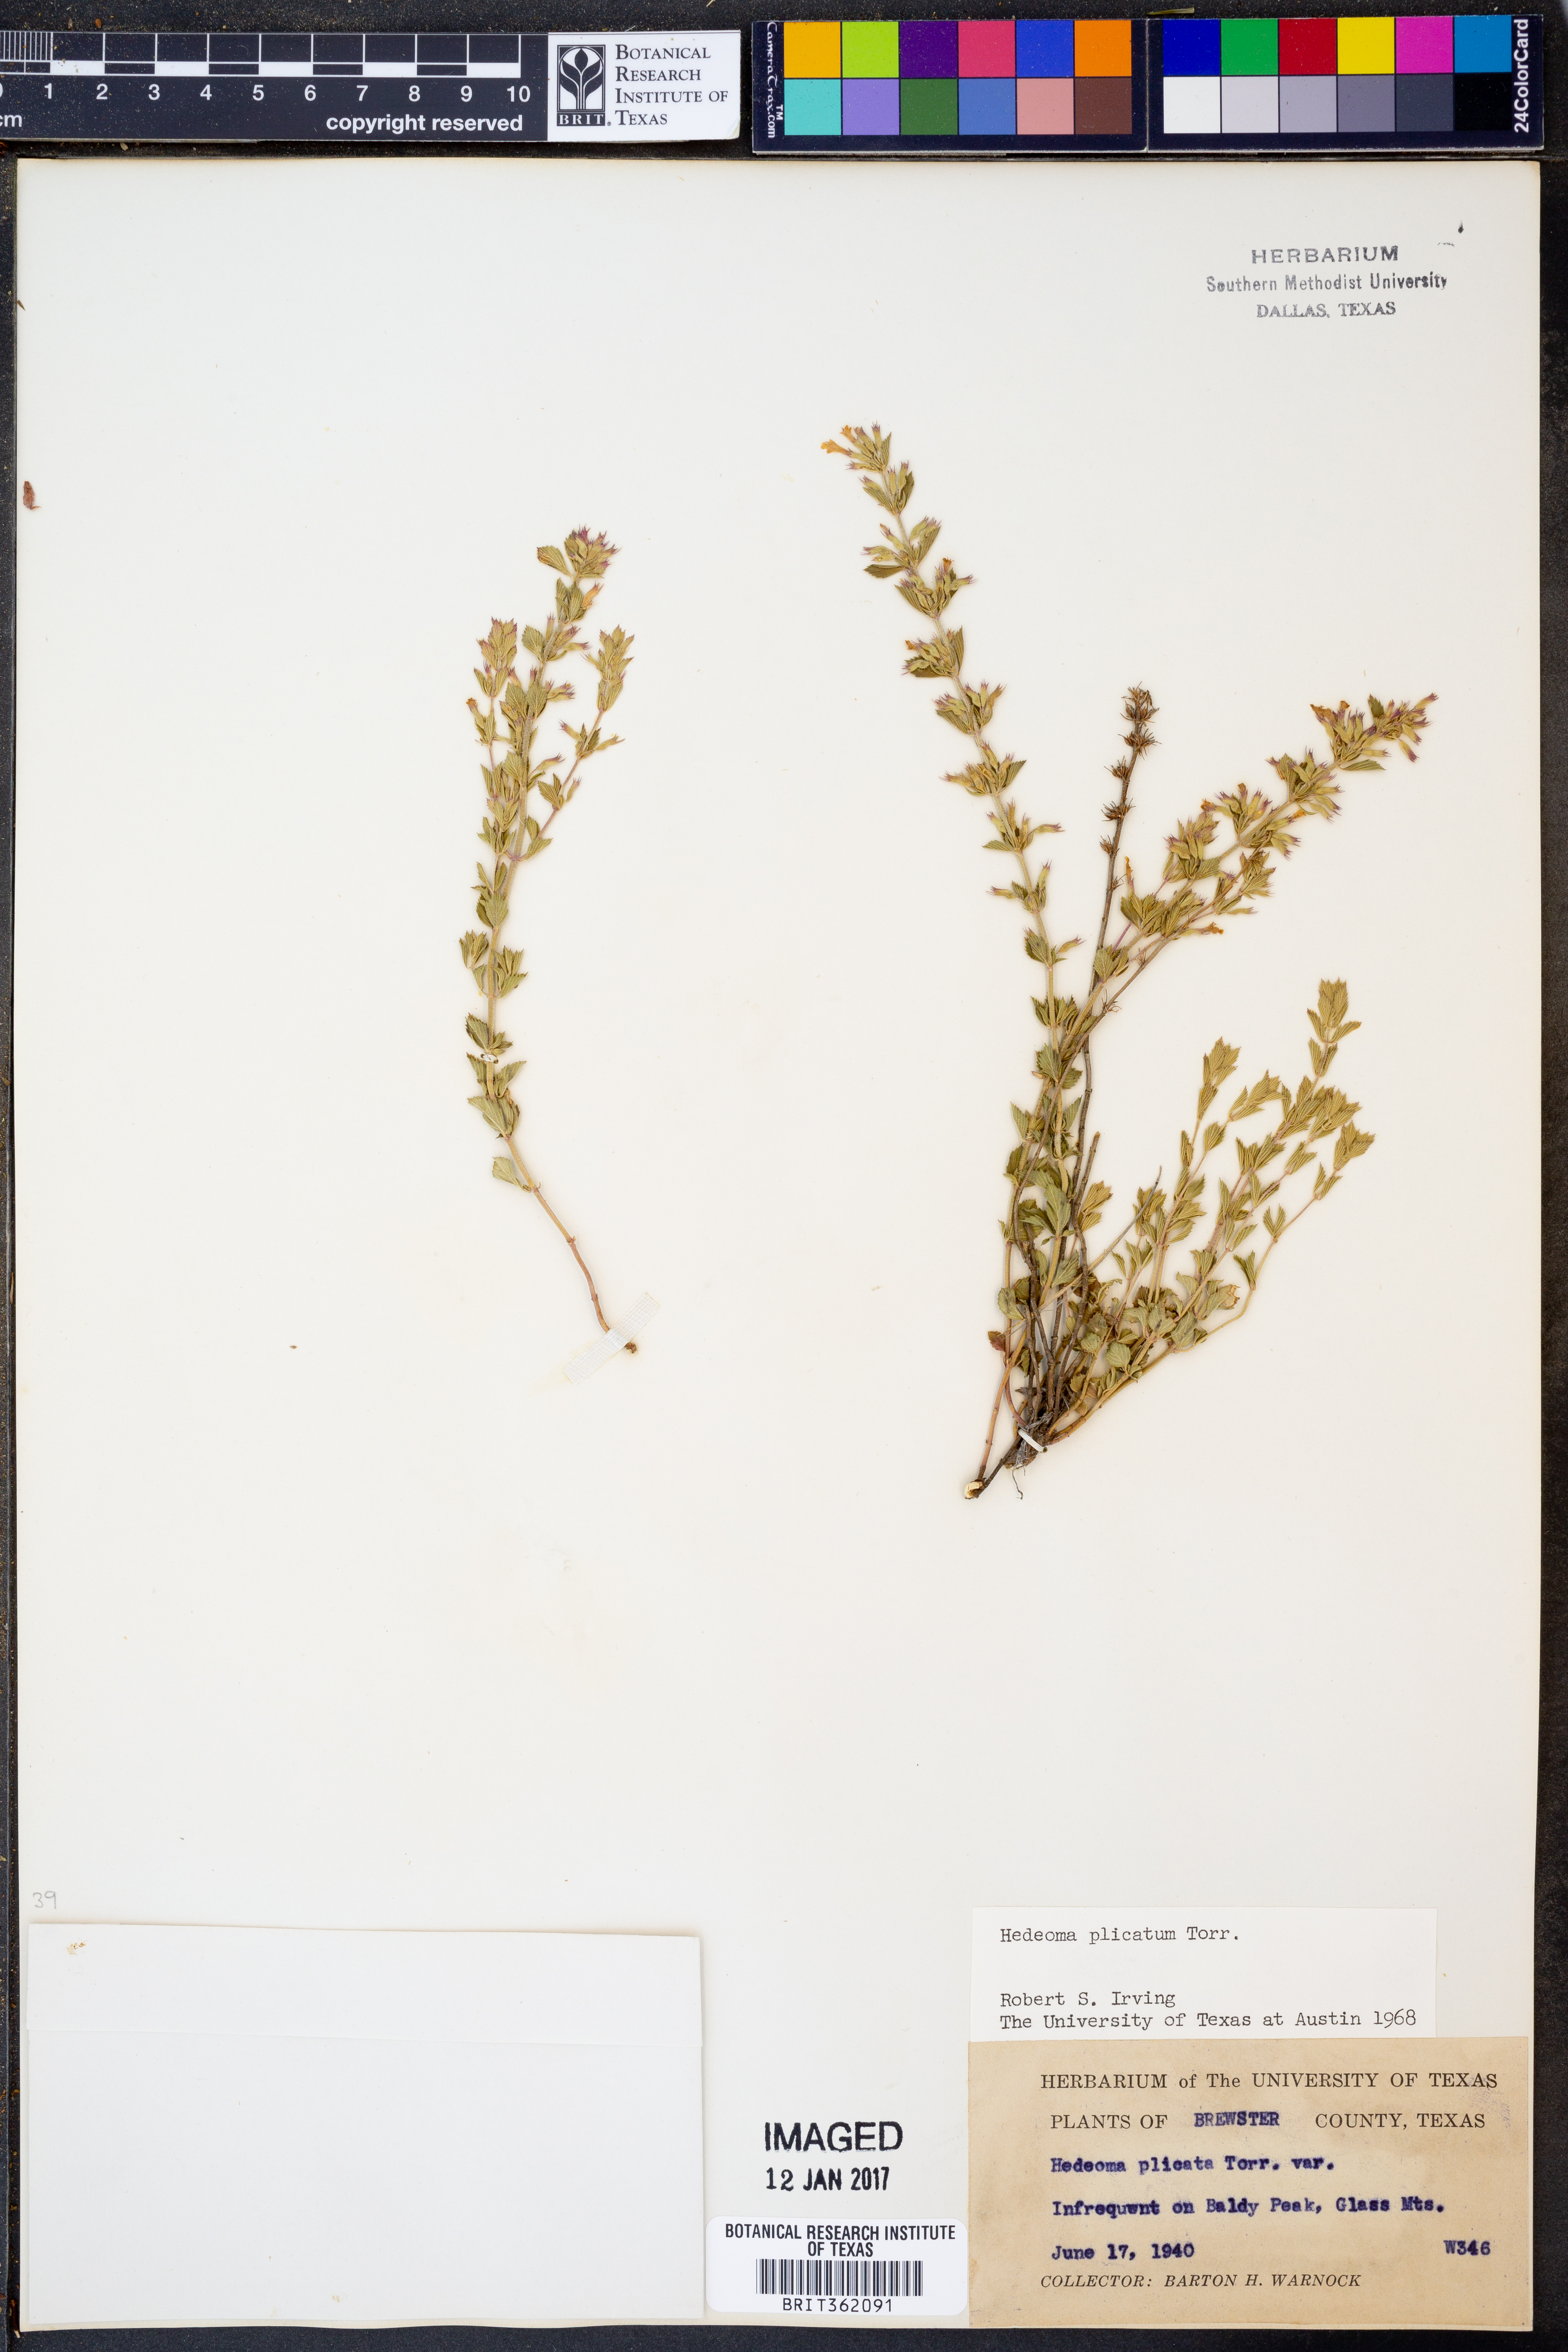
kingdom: Plantae
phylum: Tracheophyta
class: Magnoliopsida
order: Lamiales
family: Lamiaceae
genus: Hedeoma
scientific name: Hedeoma plicata
